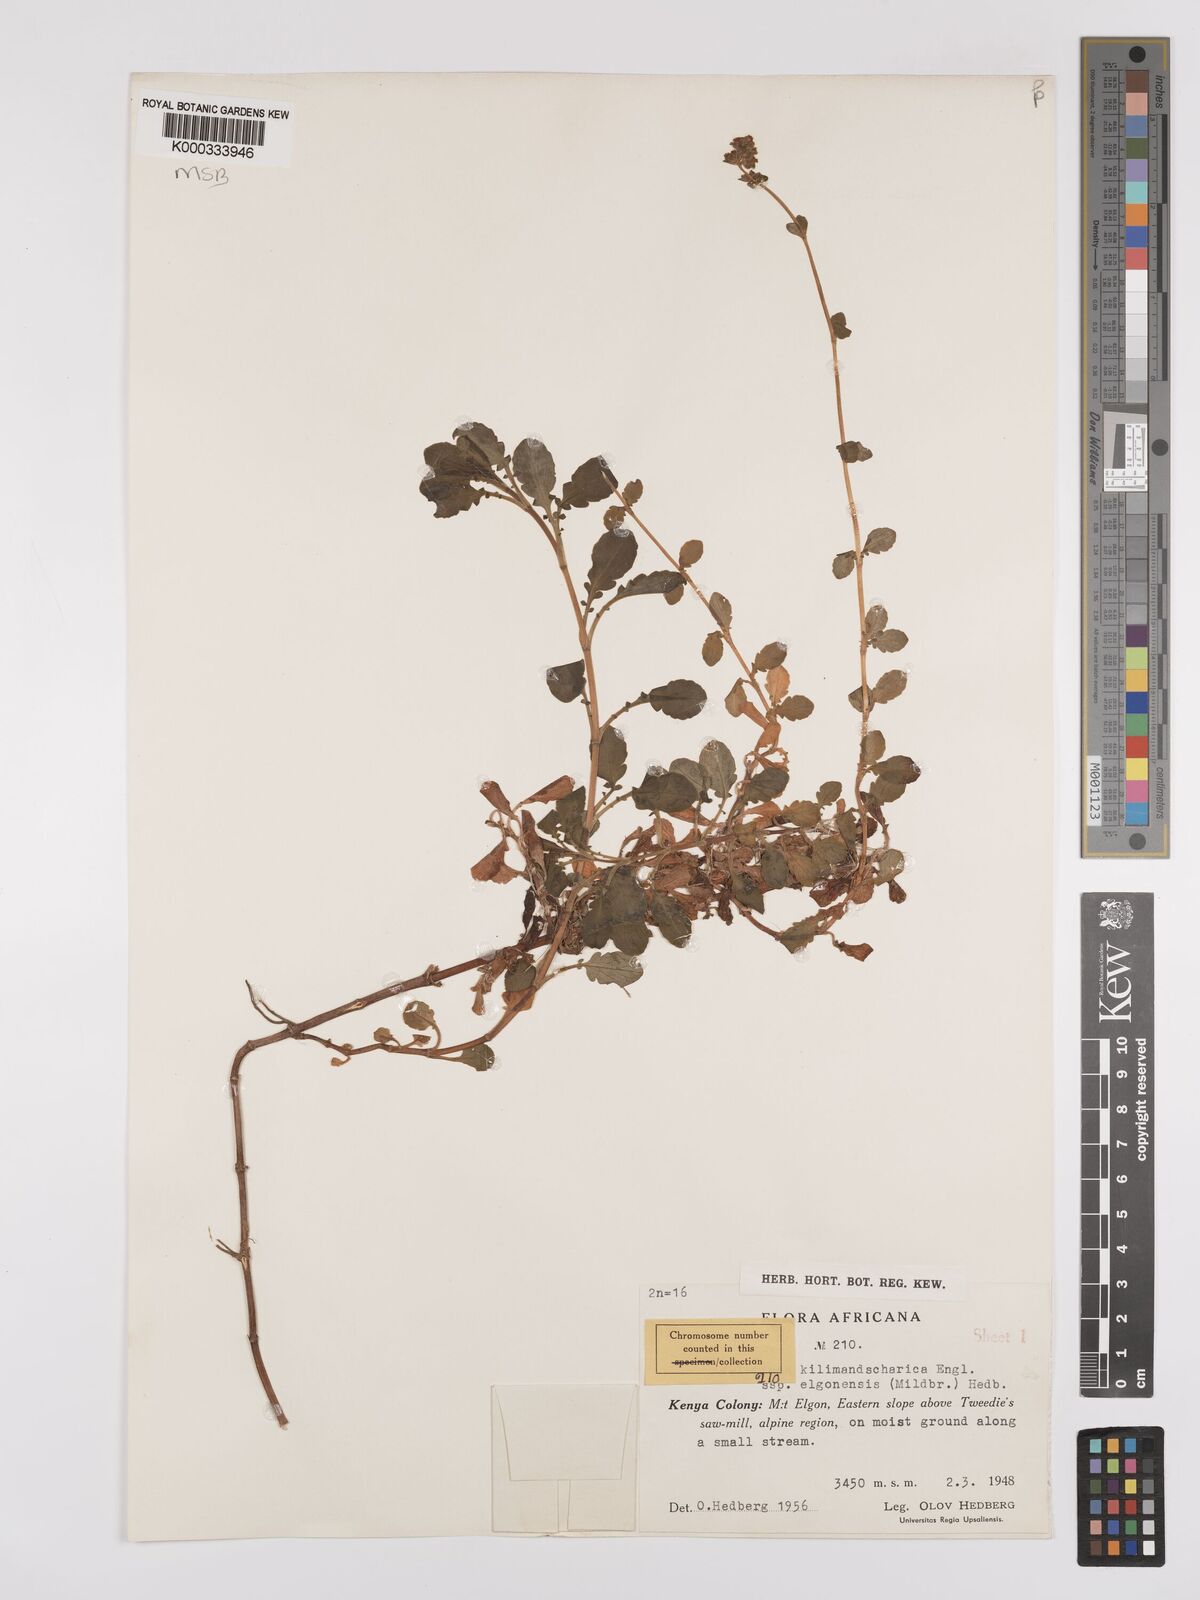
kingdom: Plantae
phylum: Tracheophyta
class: Magnoliopsida
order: Dipsacales
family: Caprifoliaceae
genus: Valeriana
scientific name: Valeriana kilimandscharica
